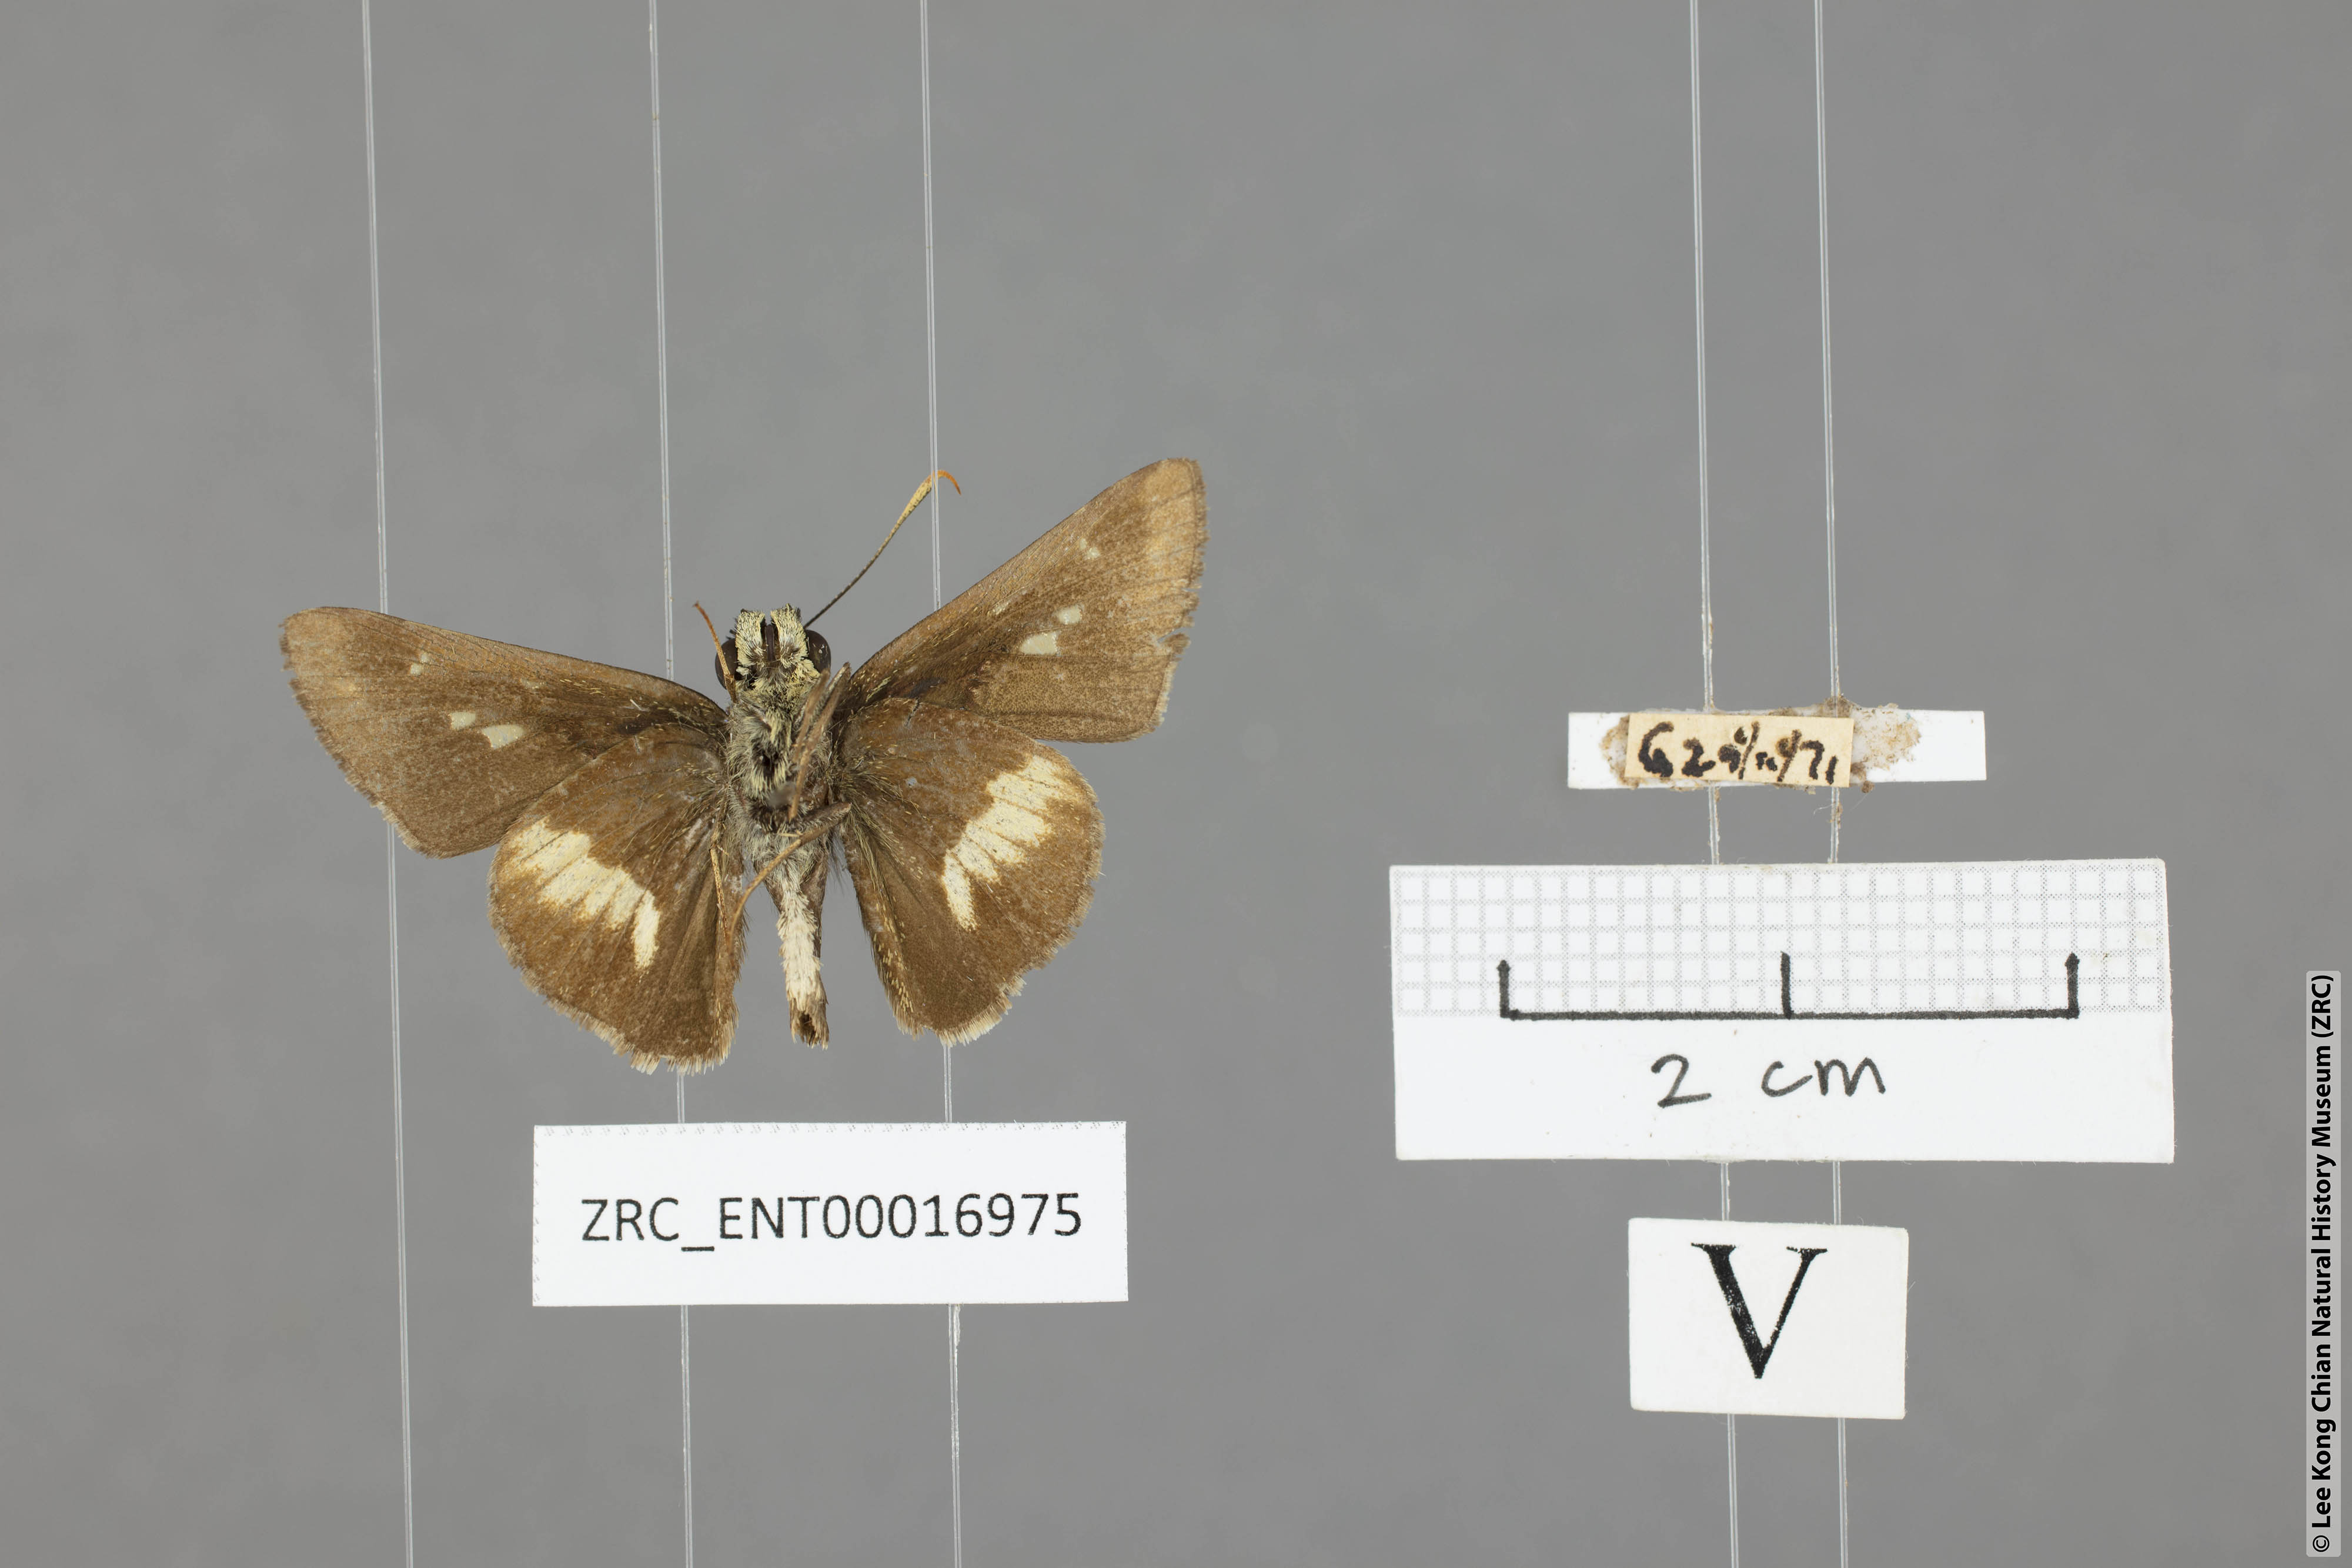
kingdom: Animalia
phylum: Arthropoda
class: Insecta
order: Lepidoptera
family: Hesperiidae
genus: Halpe
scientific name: Halpe elana
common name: Narrow-banded ace
